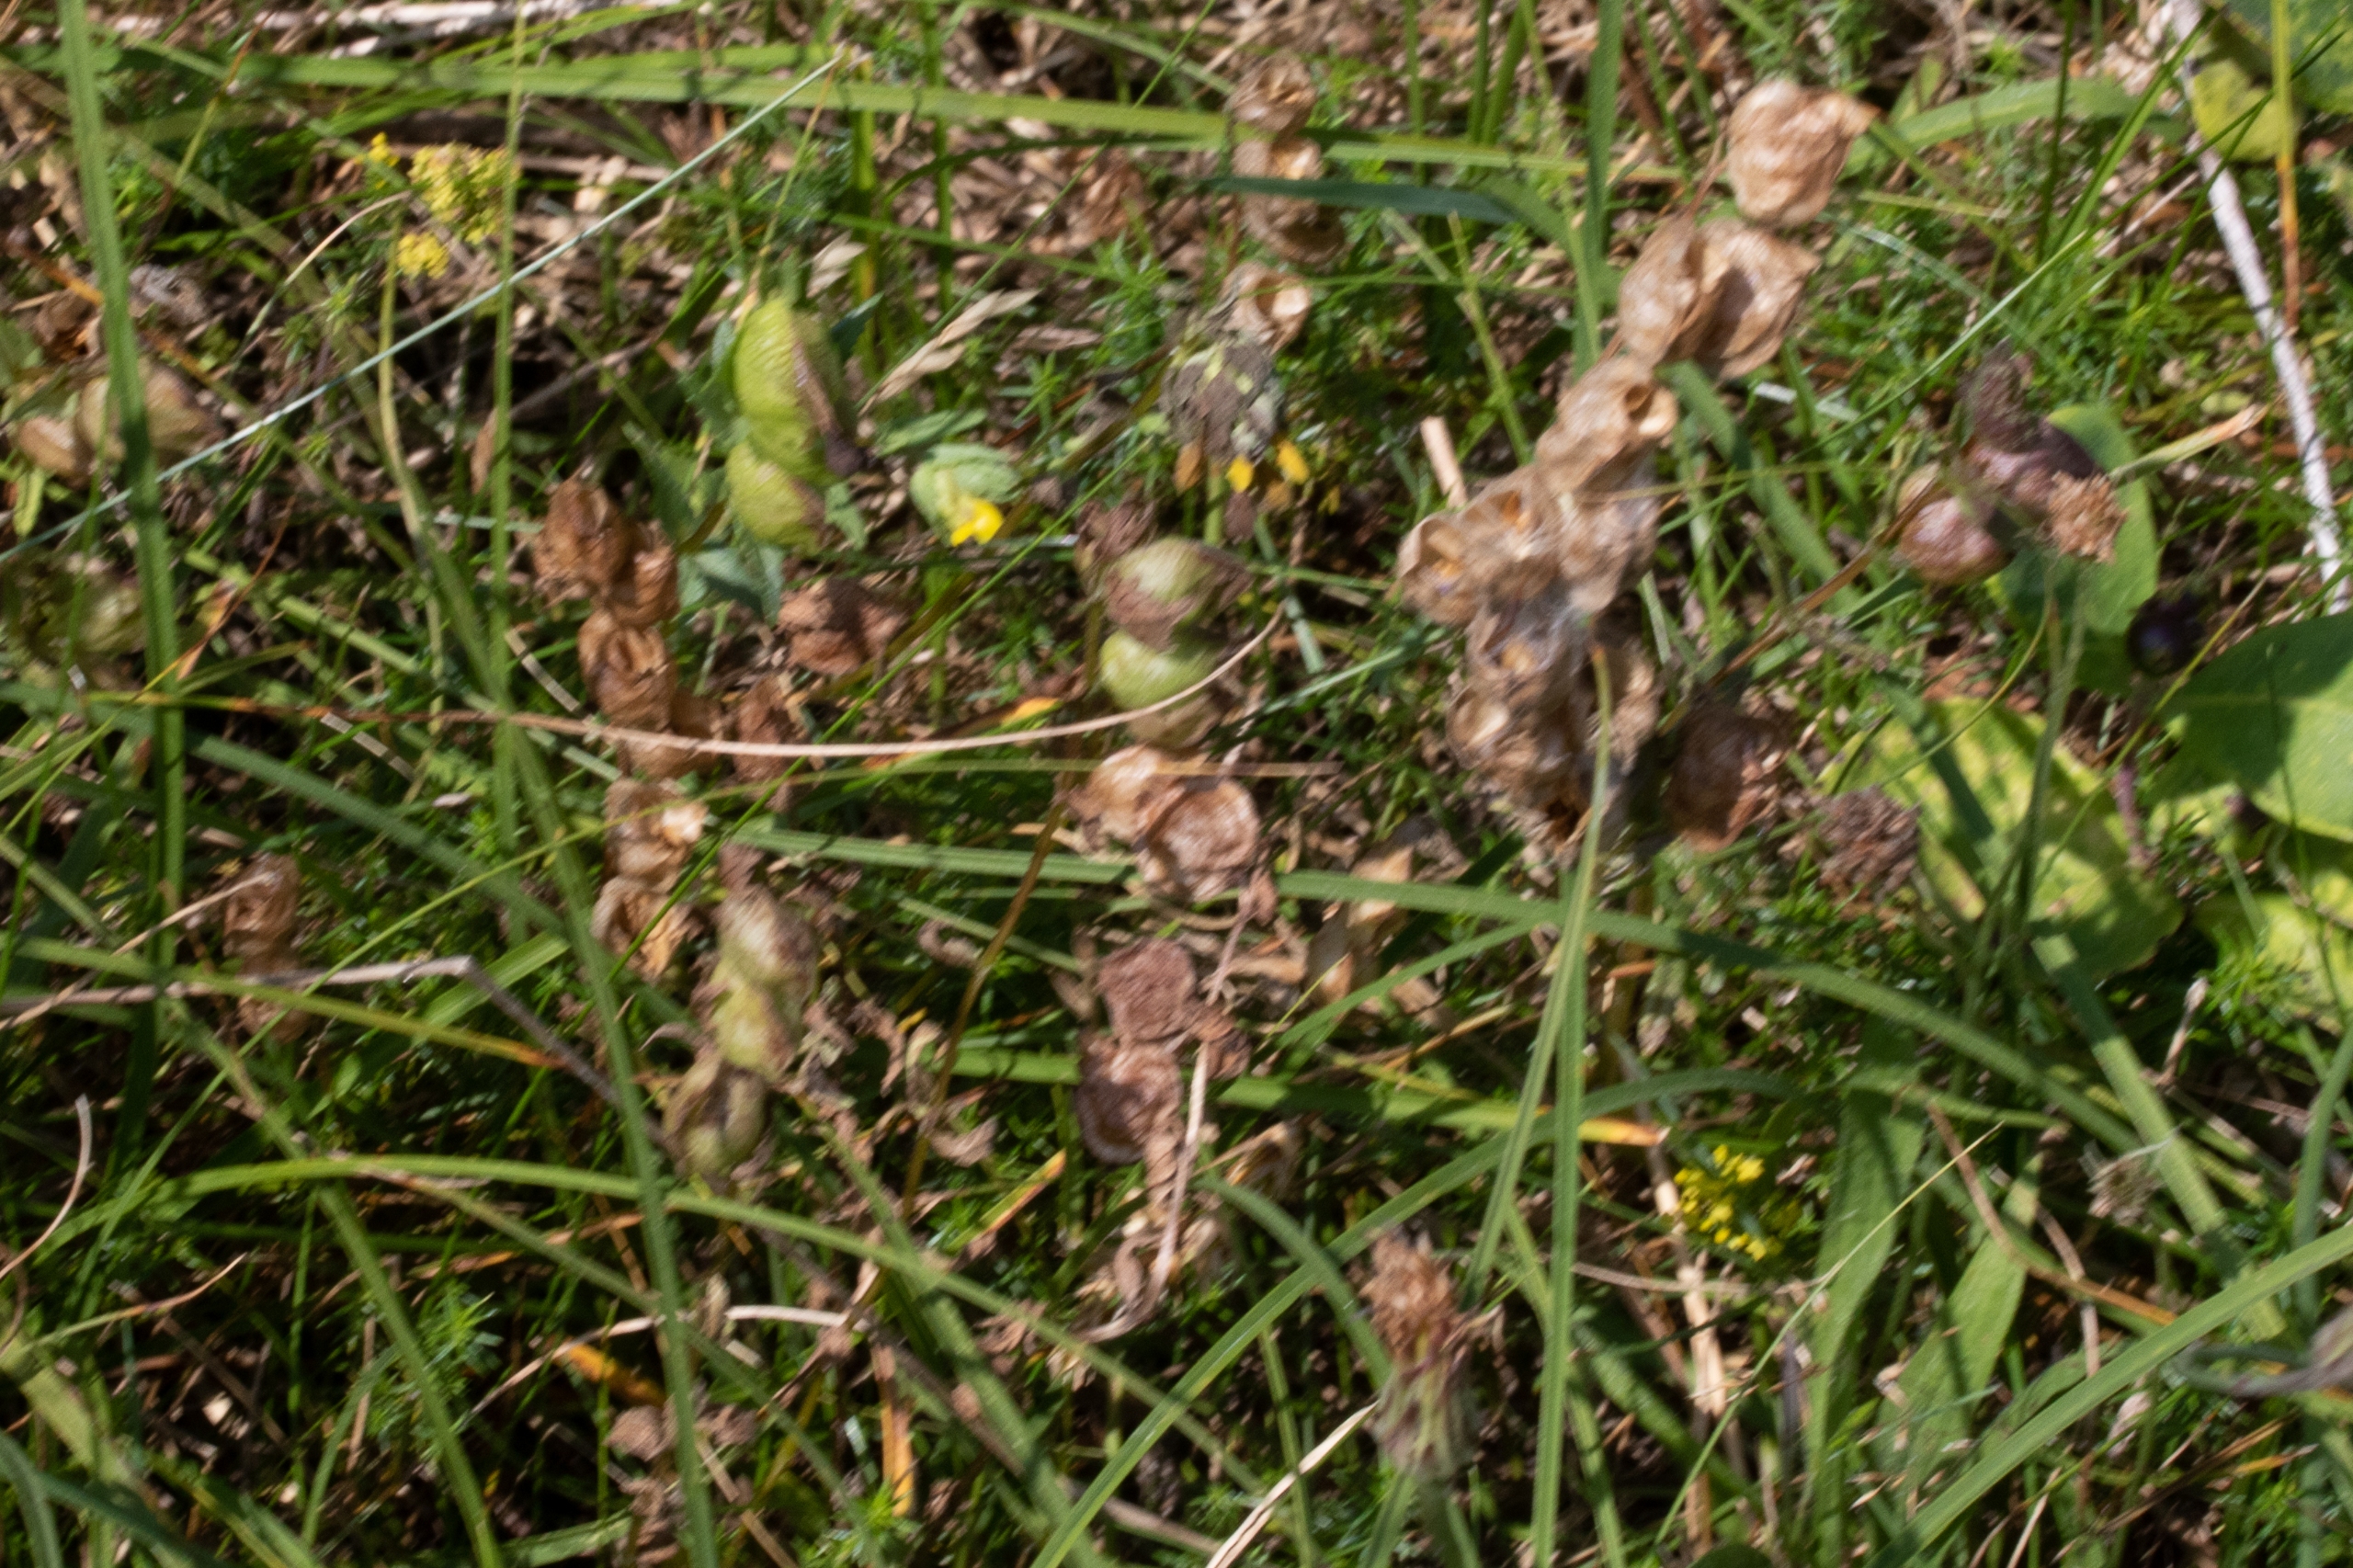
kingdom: Plantae
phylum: Tracheophyta
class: Magnoliopsida
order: Lamiales
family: Orobanchaceae
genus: Rhinanthus
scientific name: Rhinanthus
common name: Skjallerslægten
